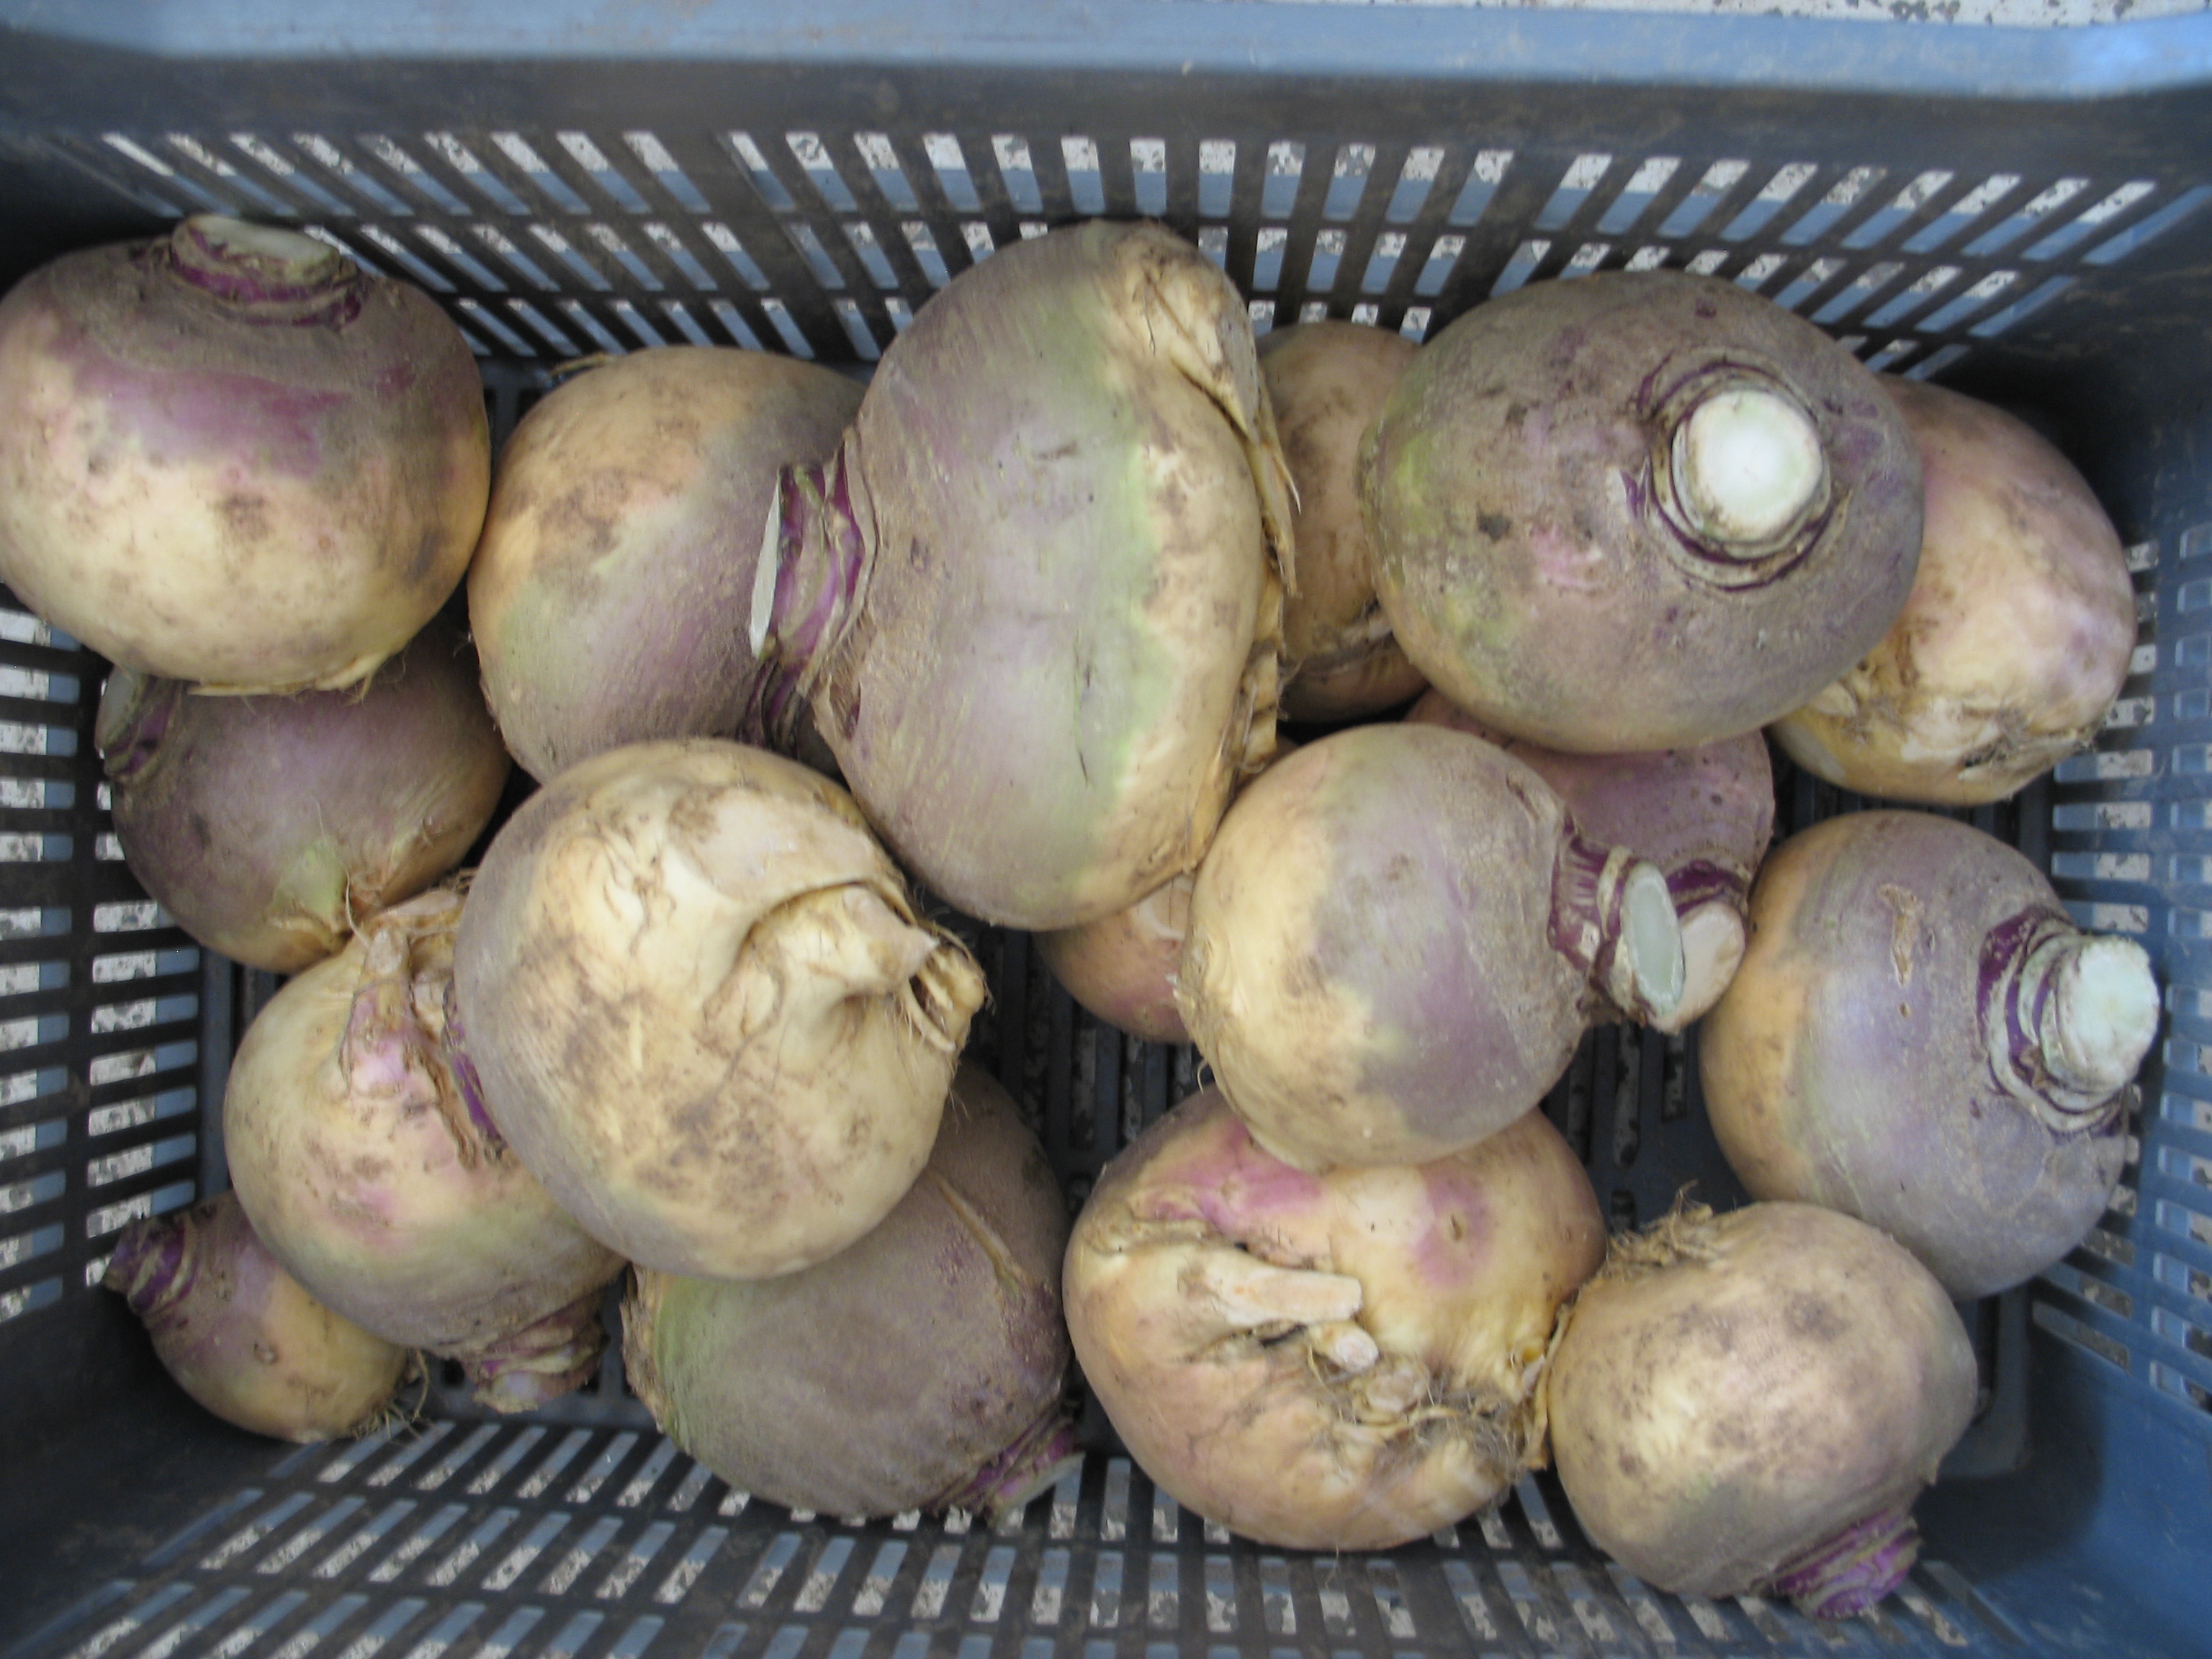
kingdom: Plantae
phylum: Tracheophyta
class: Magnoliopsida
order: Brassicales
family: Brassicaceae
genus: Brassica
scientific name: Brassica napus
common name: Rape
